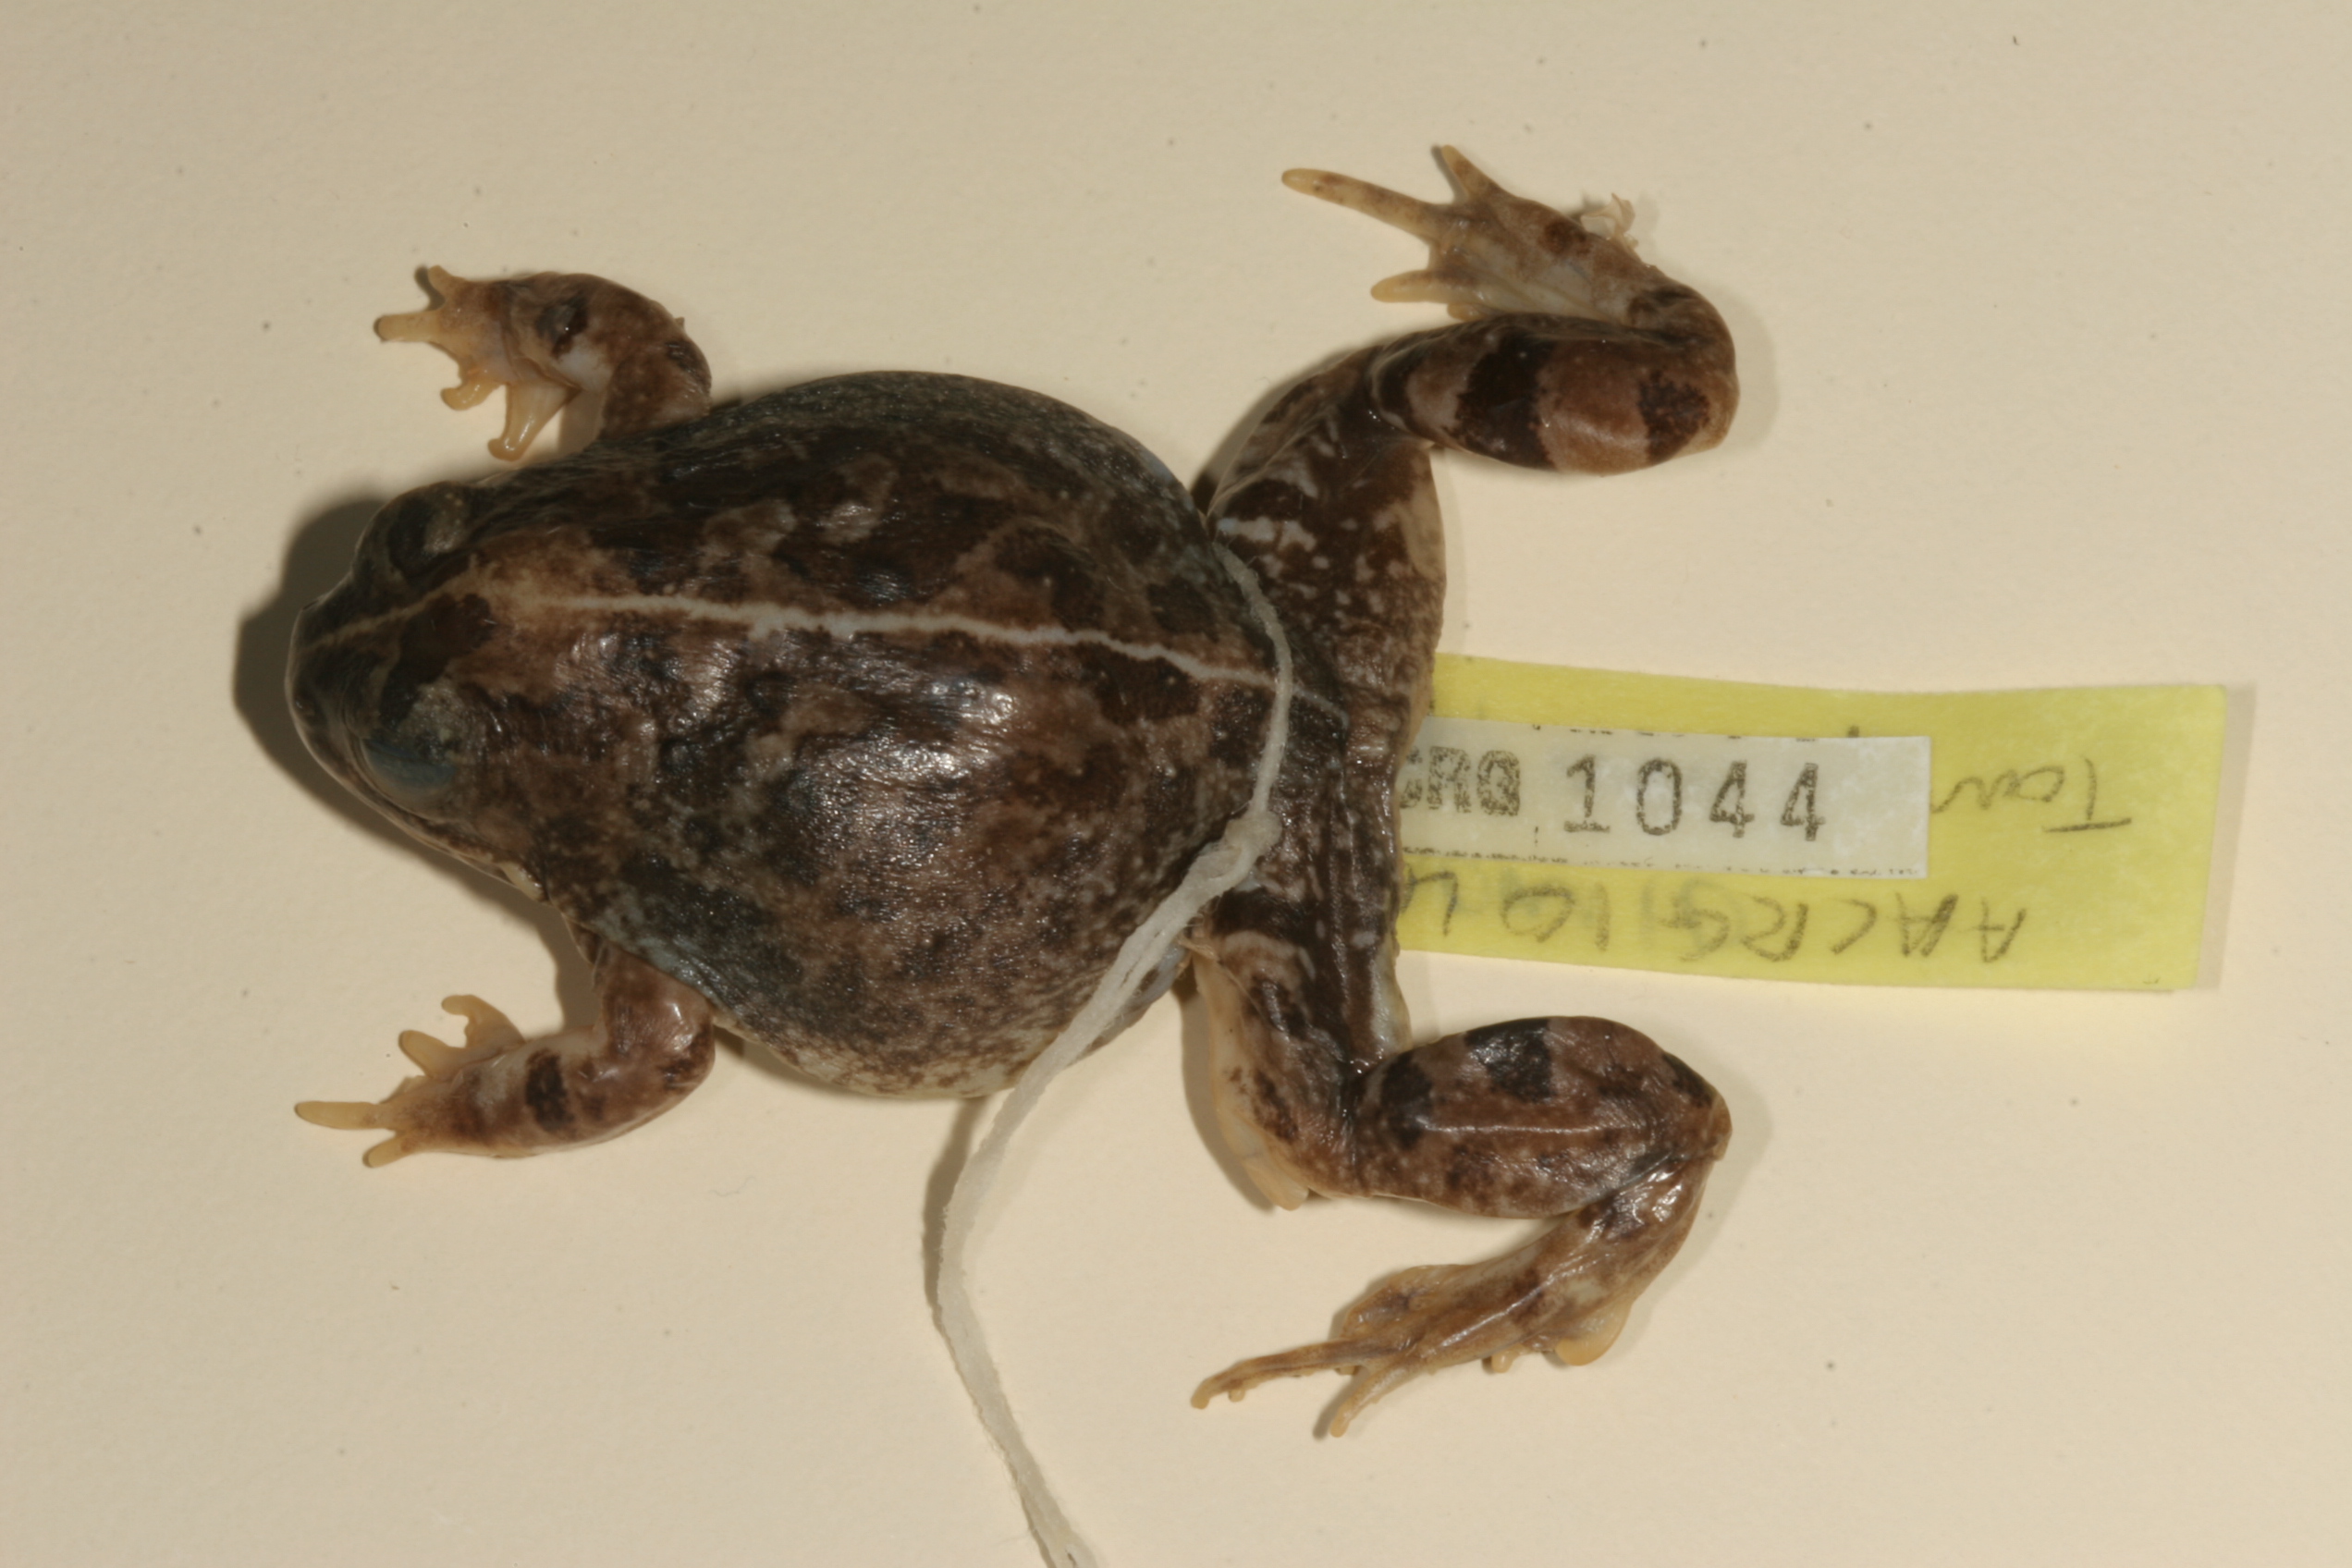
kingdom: Animalia
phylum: Chordata
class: Amphibia
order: Anura
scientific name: Anura
